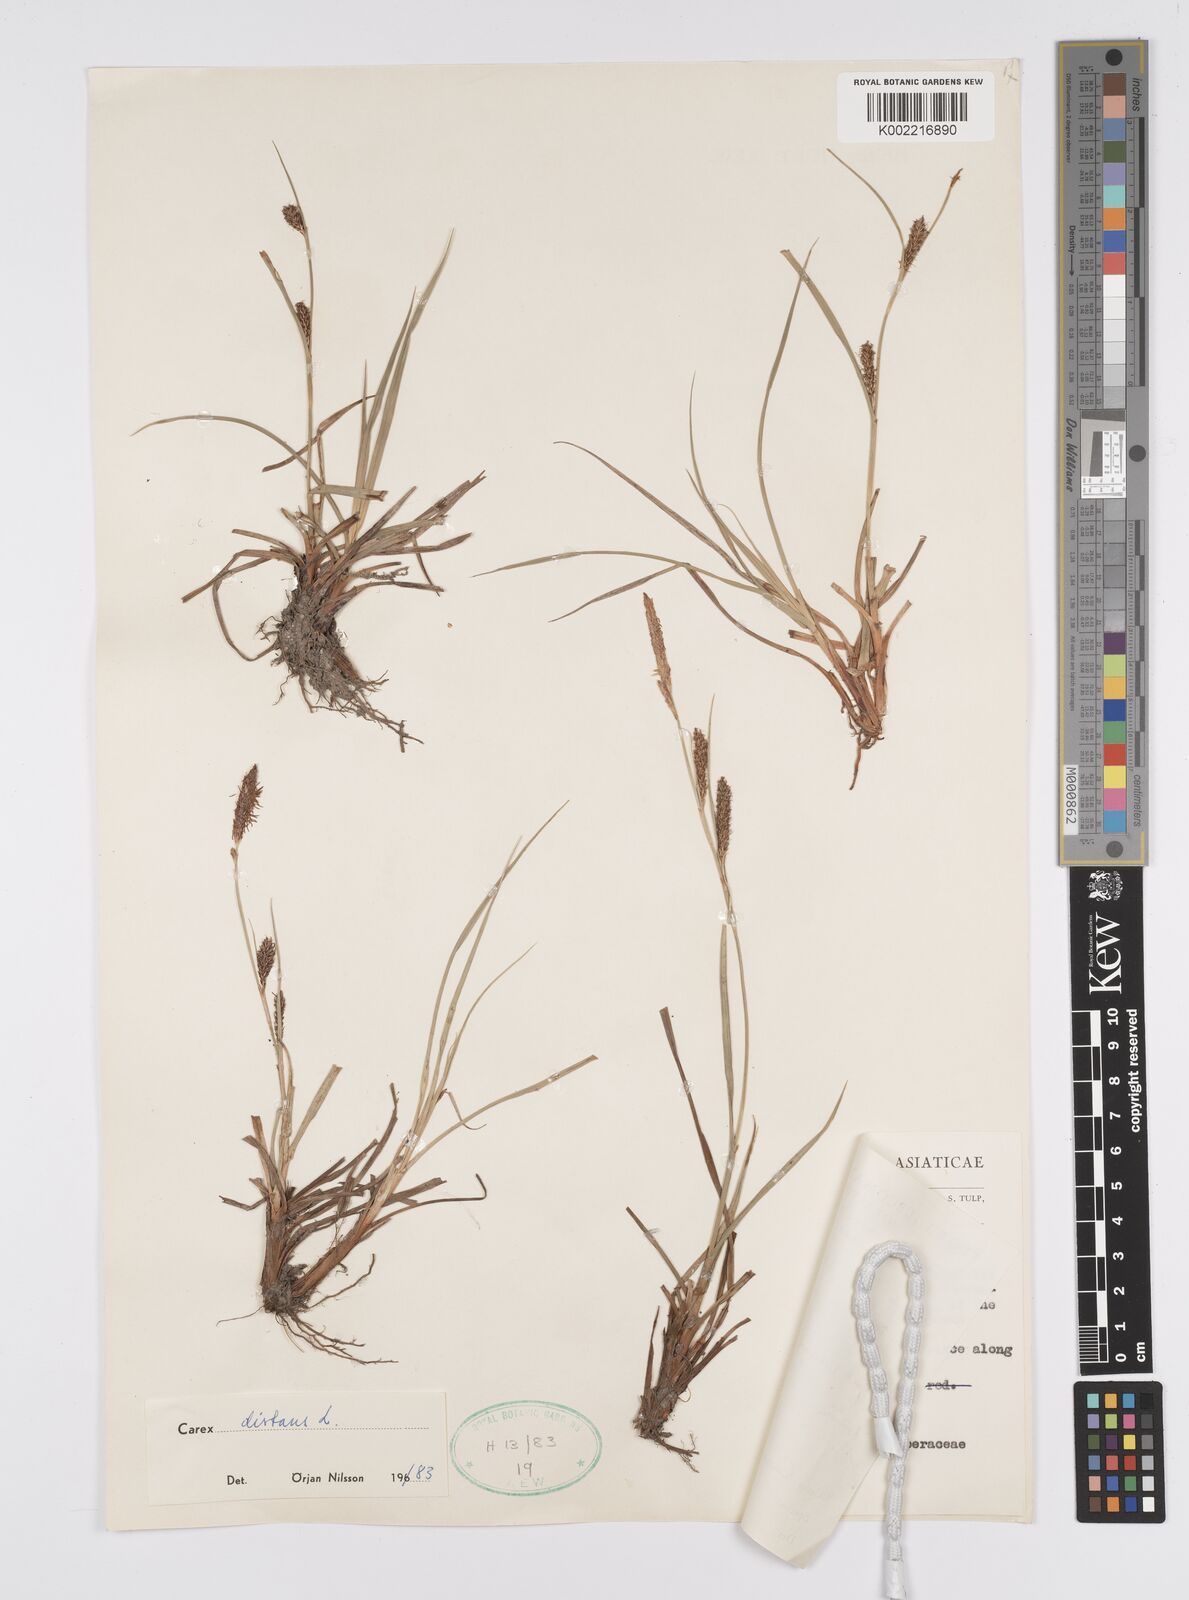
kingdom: Plantae
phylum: Tracheophyta
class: Liliopsida
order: Poales
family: Cyperaceae
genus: Carex
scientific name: Carex distans
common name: Distant sedge
